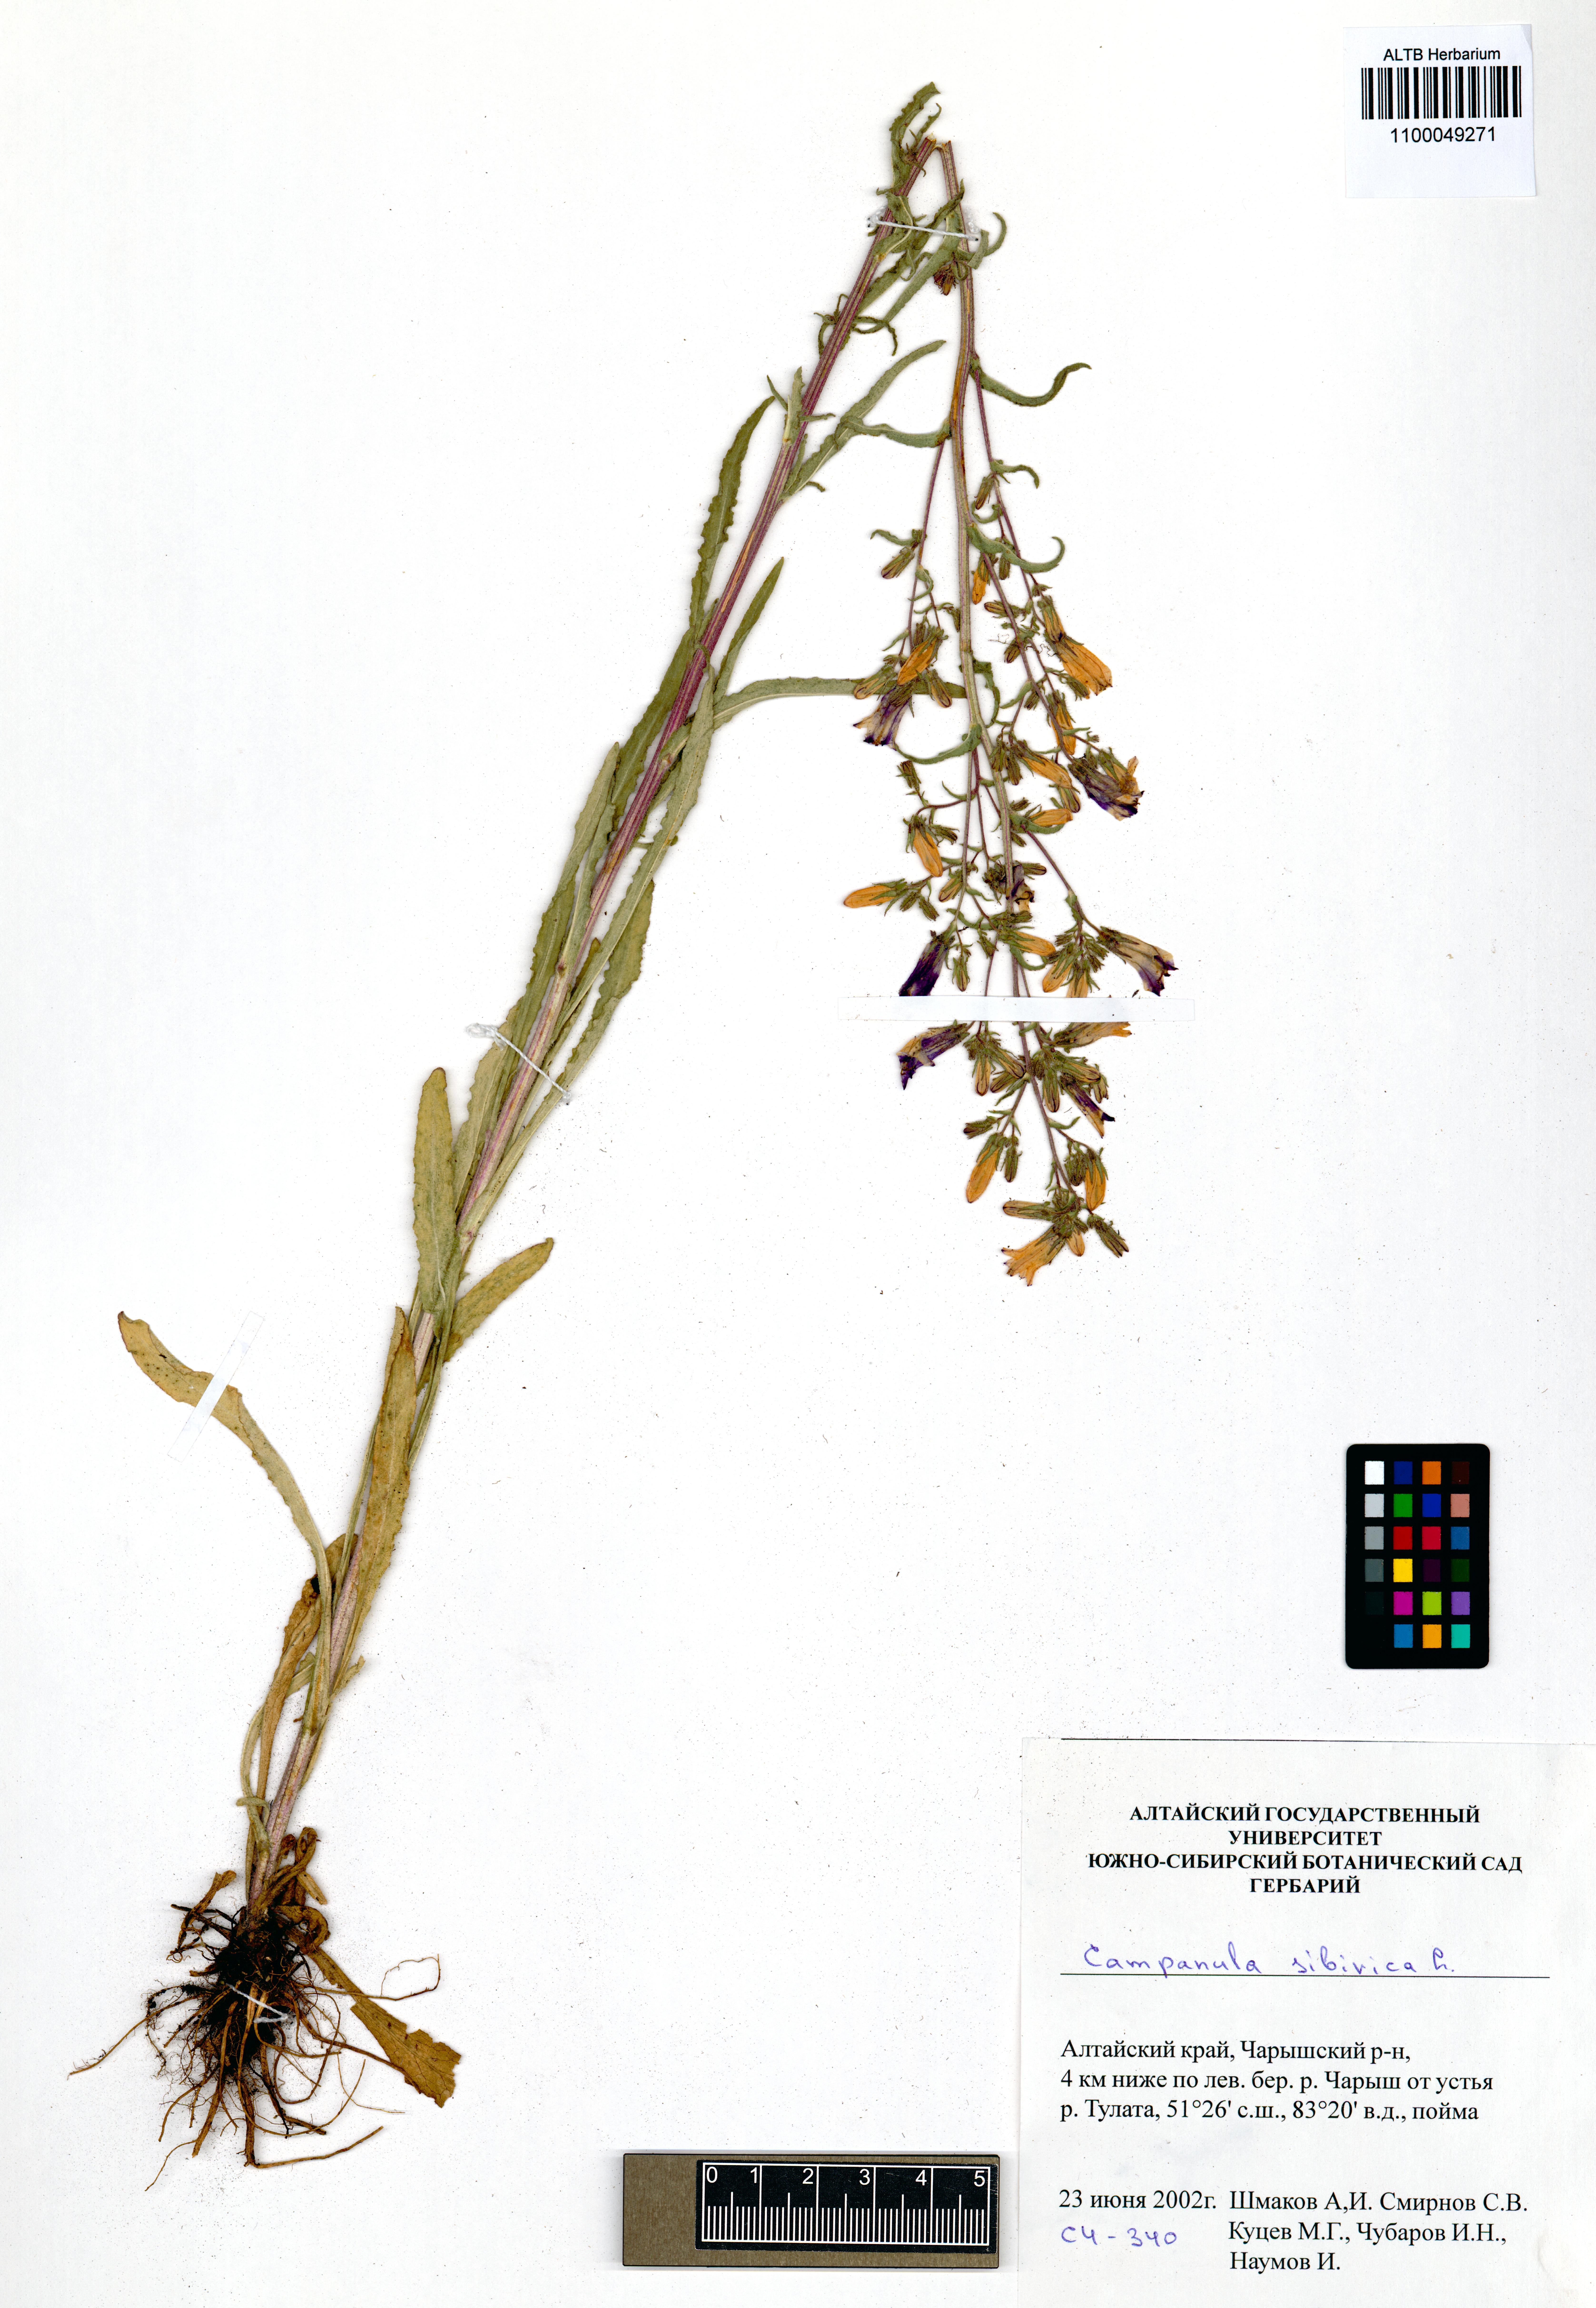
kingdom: Plantae
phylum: Tracheophyta
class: Magnoliopsida
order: Asterales
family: Campanulaceae
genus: Campanula
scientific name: Campanula sibirica
